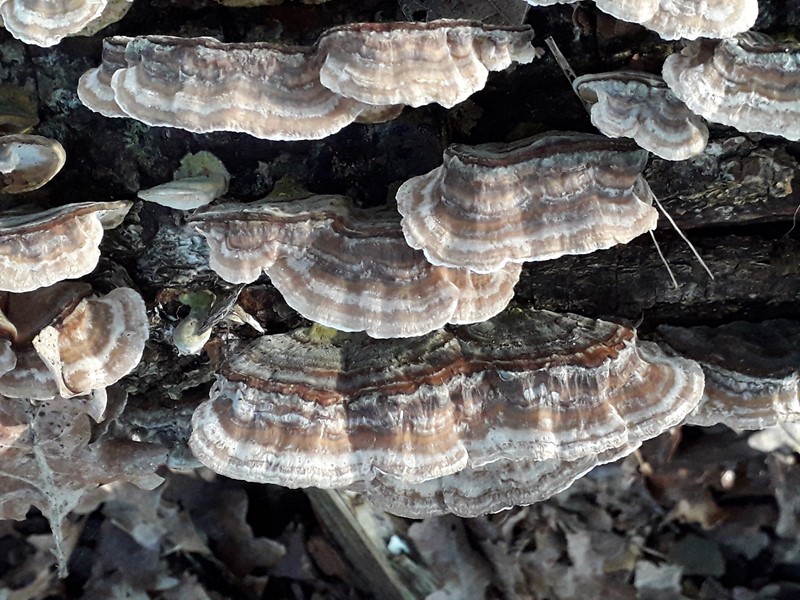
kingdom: Fungi
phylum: Basidiomycota
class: Agaricomycetes
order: Polyporales
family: Polyporaceae
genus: Trametes
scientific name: Trametes versicolor
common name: broget læderporesvamp
